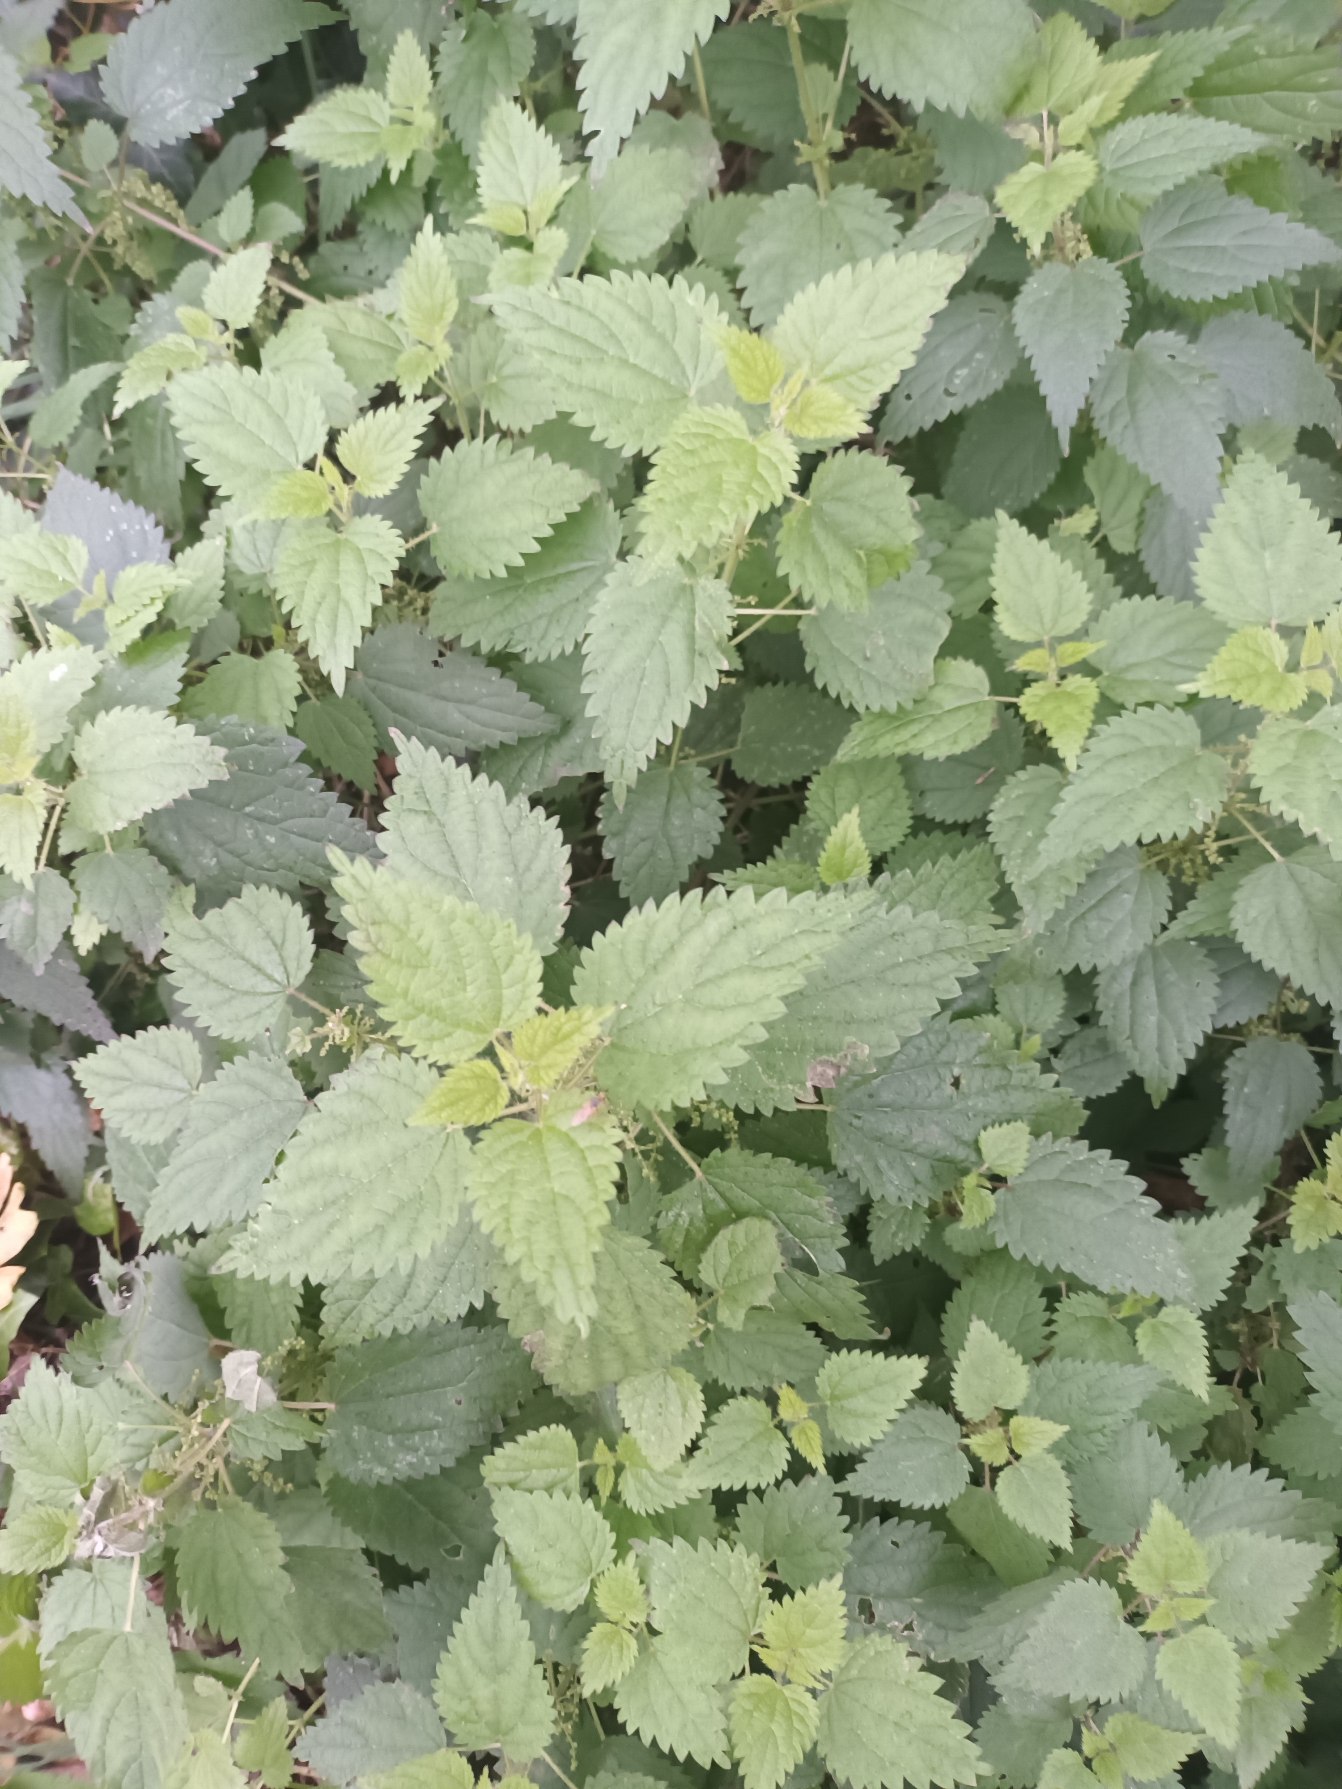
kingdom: Plantae
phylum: Tracheophyta
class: Magnoliopsida
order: Rosales
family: Urticaceae
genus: Urtica
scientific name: Urtica dioica
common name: Stor nælde
